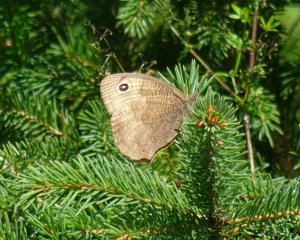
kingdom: Animalia
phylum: Arthropoda
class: Insecta
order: Lepidoptera
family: Nymphalidae
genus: Cercyonis
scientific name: Cercyonis pegala
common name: Common Wood-Nymph
